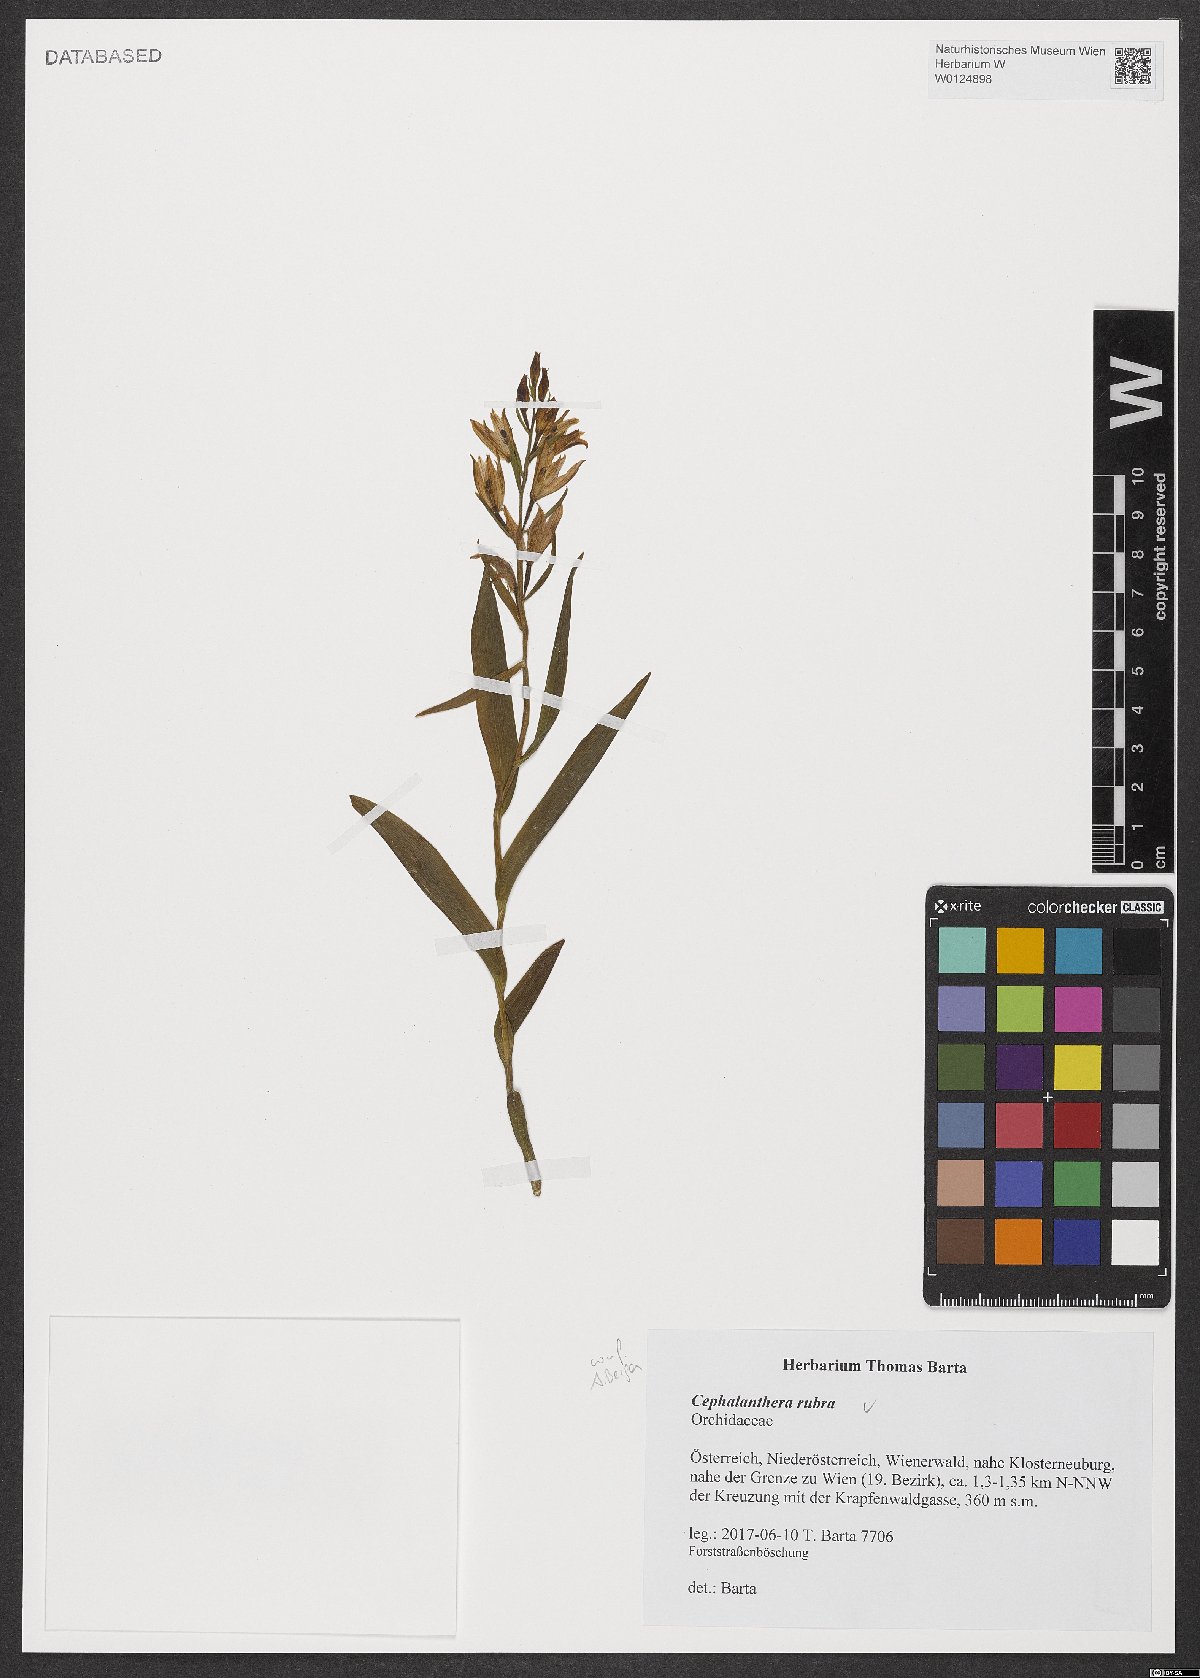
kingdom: Plantae
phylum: Tracheophyta
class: Liliopsida
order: Asparagales
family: Orchidaceae
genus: Cephalanthera
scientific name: Cephalanthera rubra
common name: Red helleborine
